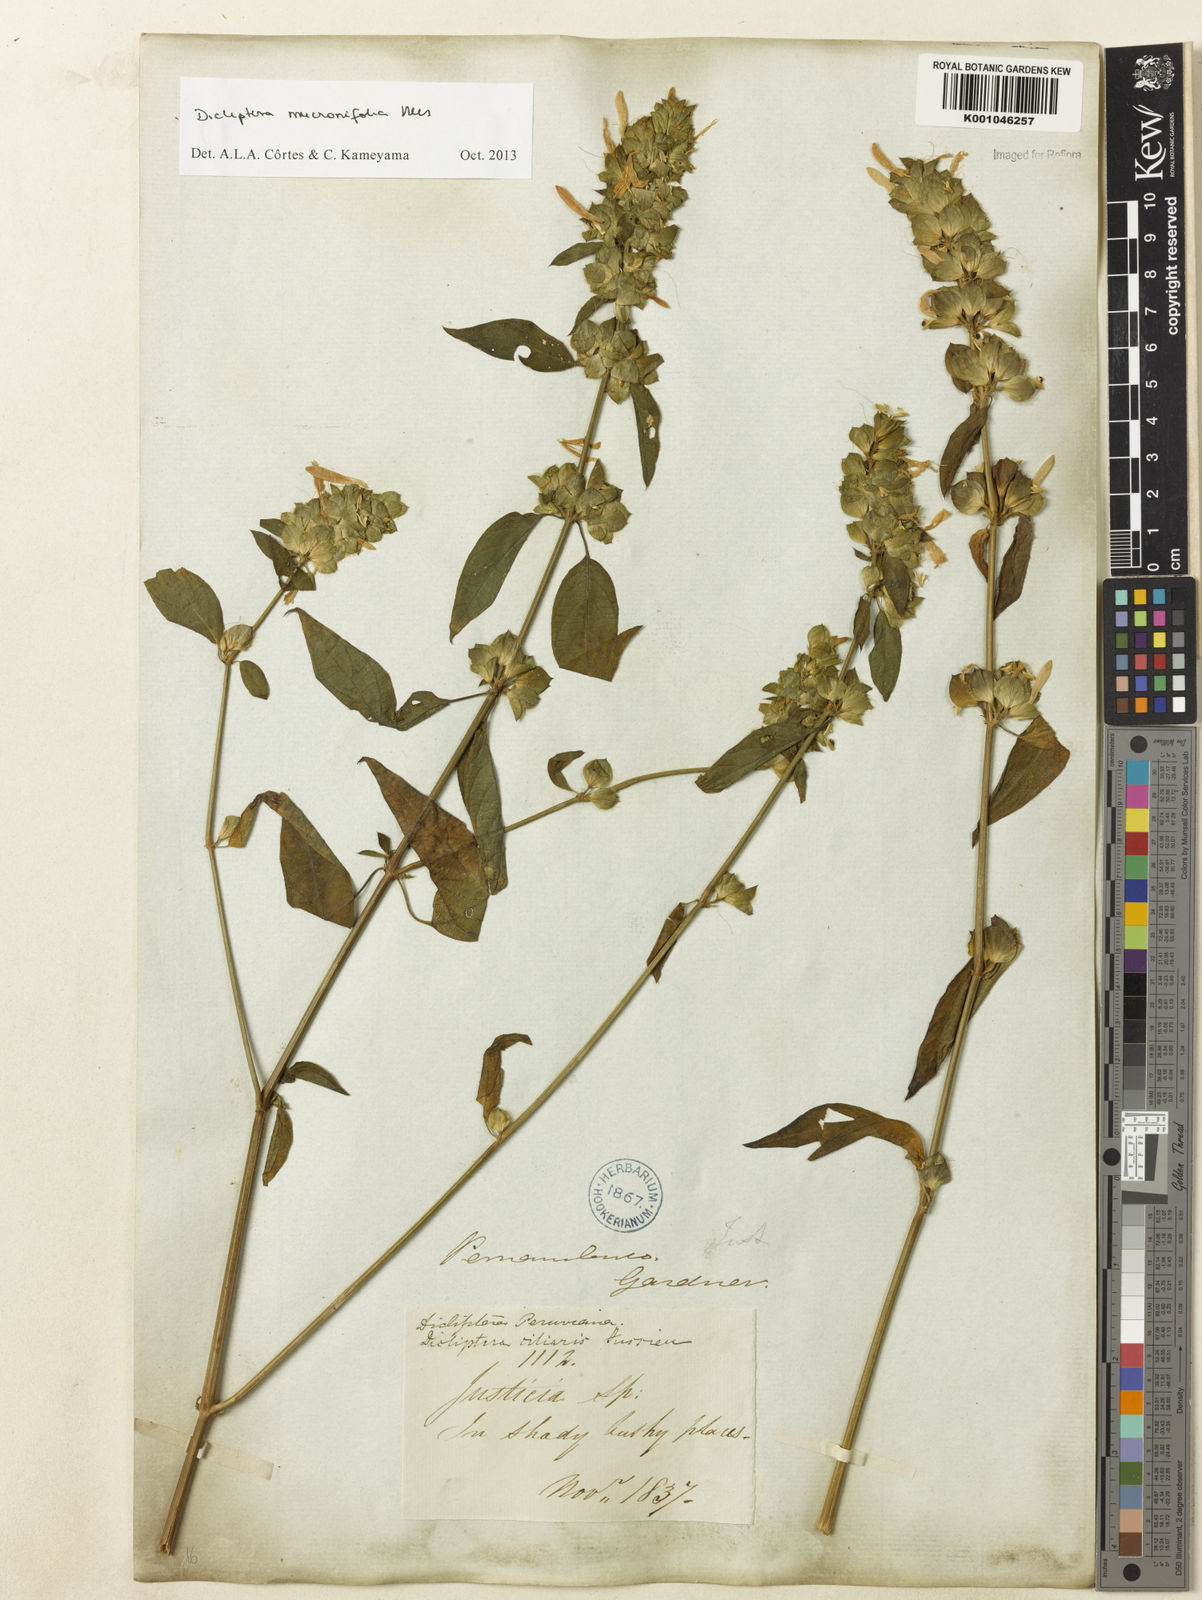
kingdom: Plantae
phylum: Tracheophyta
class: Magnoliopsida
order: Lamiales
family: Acanthaceae
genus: Dicliptera
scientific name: Dicliptera mucronifolia
